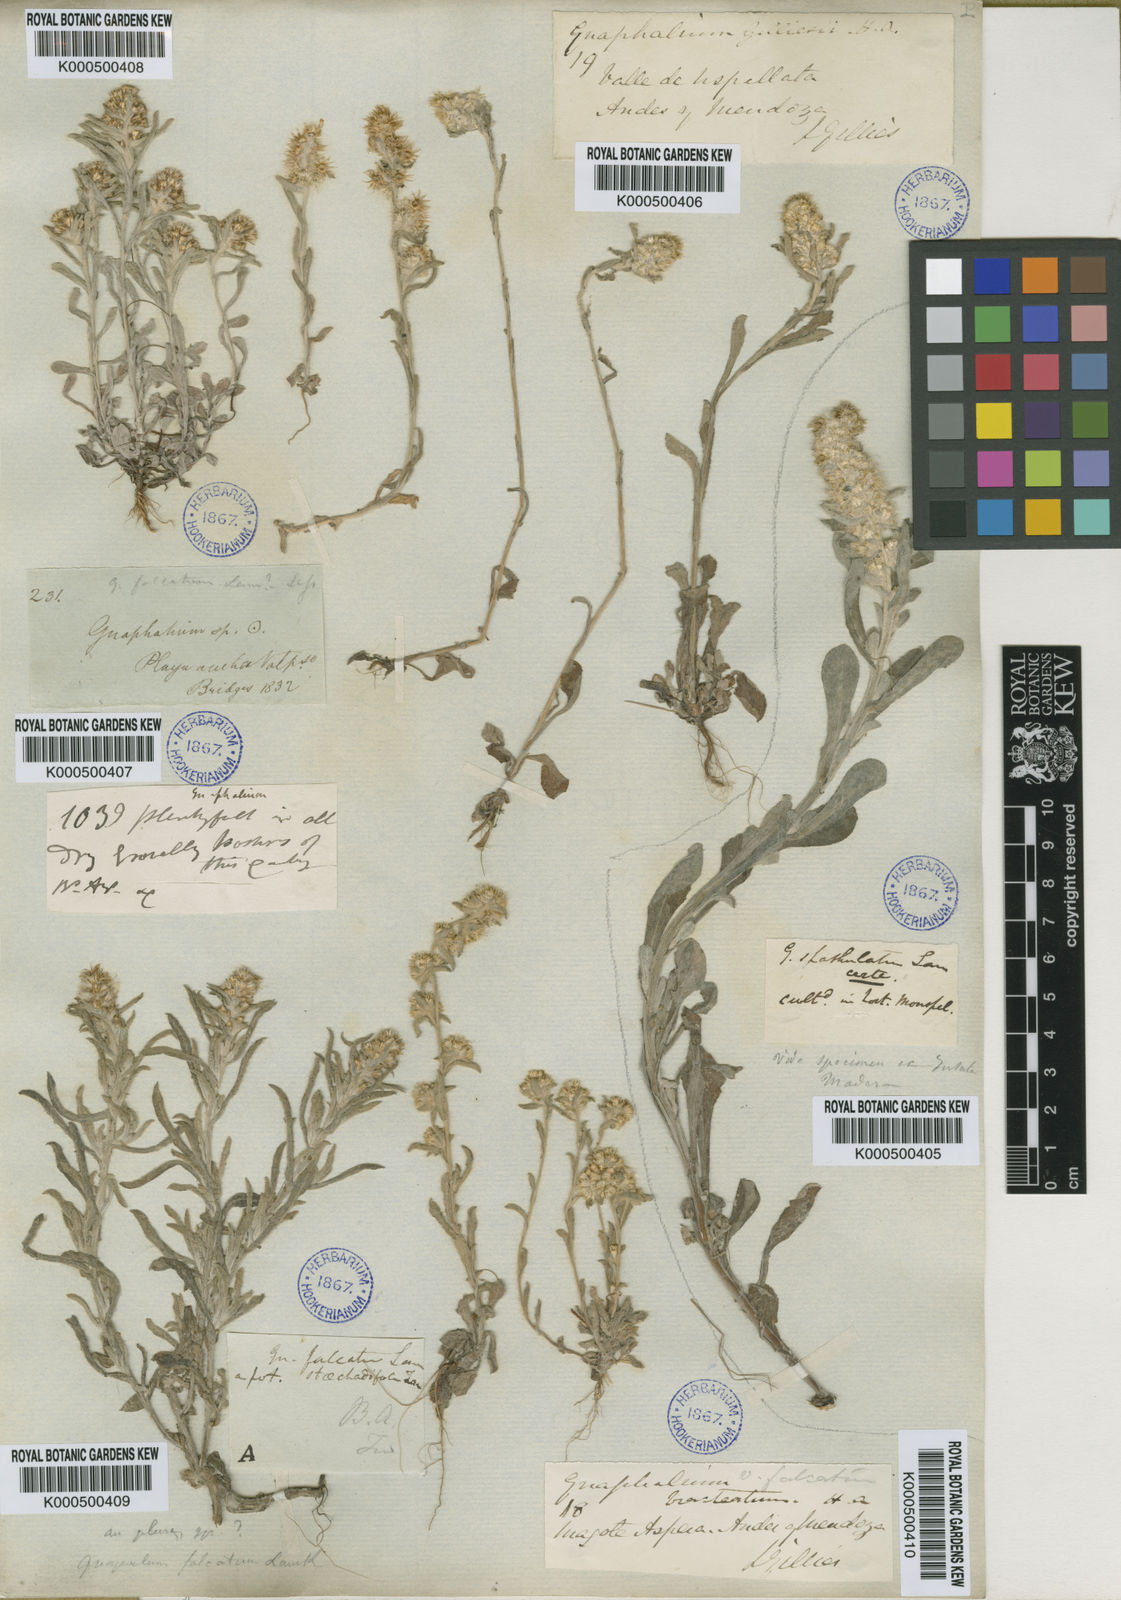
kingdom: Plantae
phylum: Tracheophyta
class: Magnoliopsida
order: Asterales
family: Asteraceae
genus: Gamochaeta
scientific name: Gamochaeta falcata
